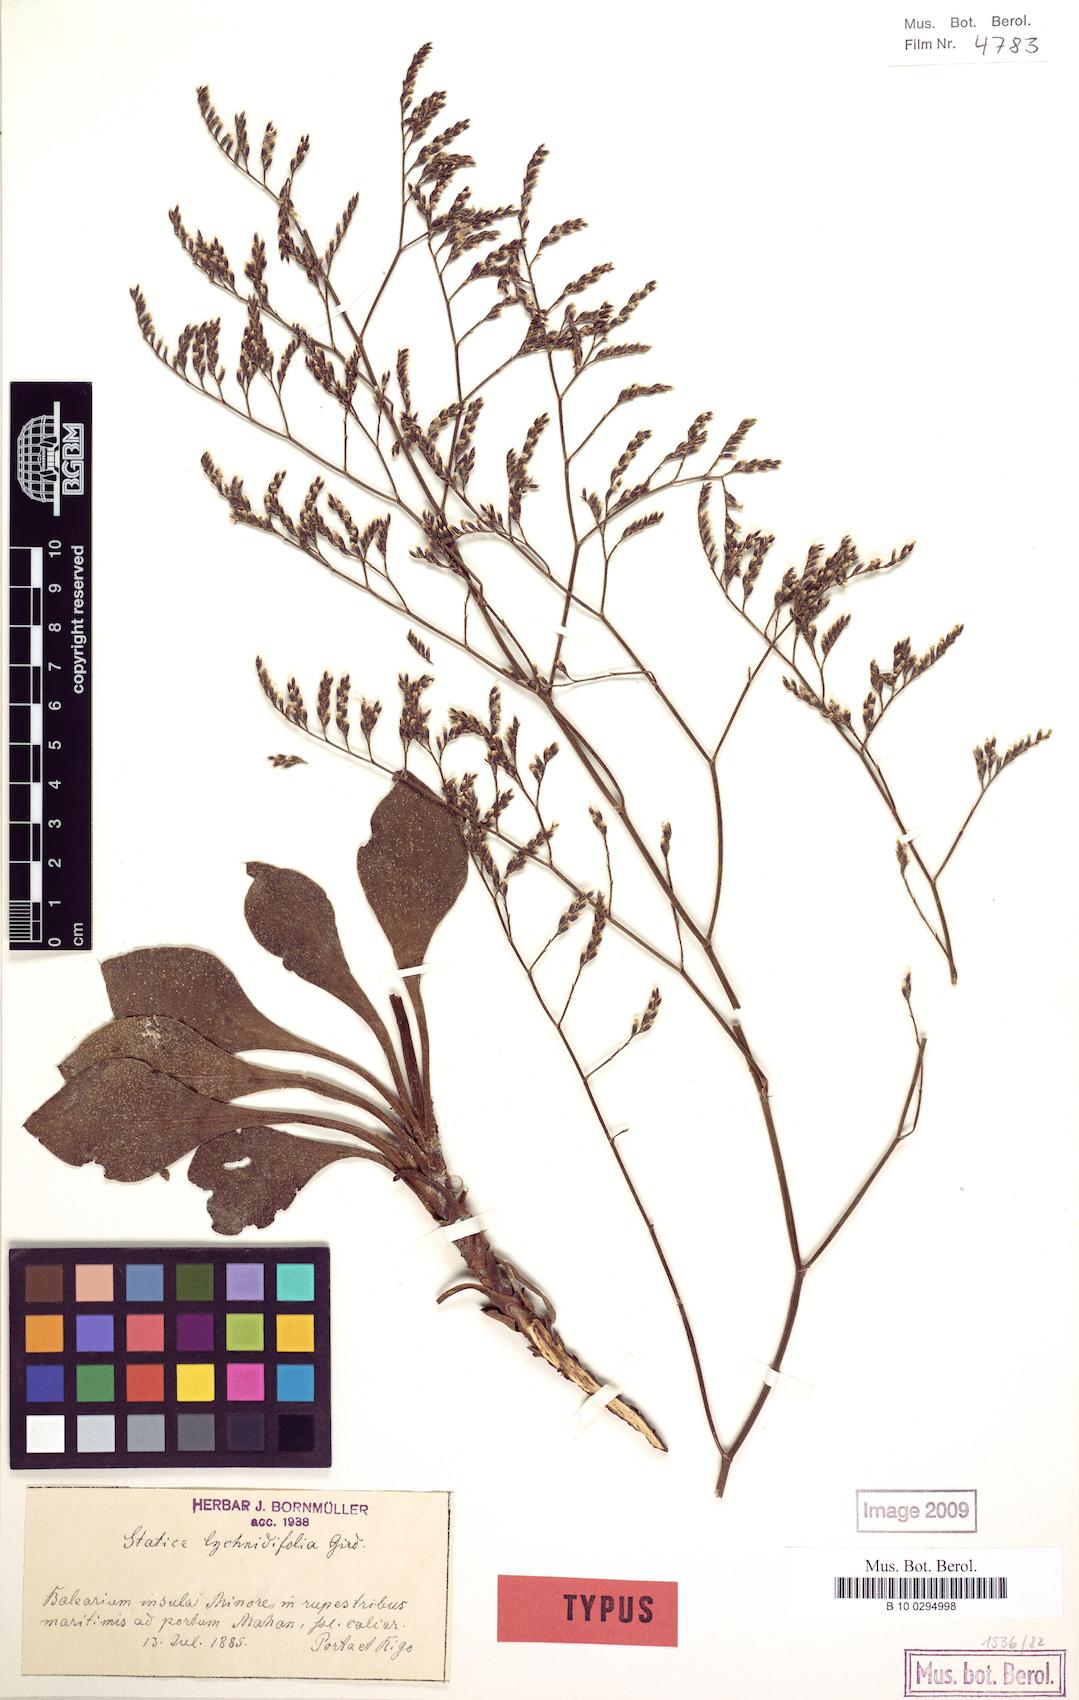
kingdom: Plantae
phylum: Tracheophyta
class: Magnoliopsida
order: Caryophyllales
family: Plumbaginaceae
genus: Limonium
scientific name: Limonium auriculae-ursifolium
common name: Broad-leaved sea-lavender
